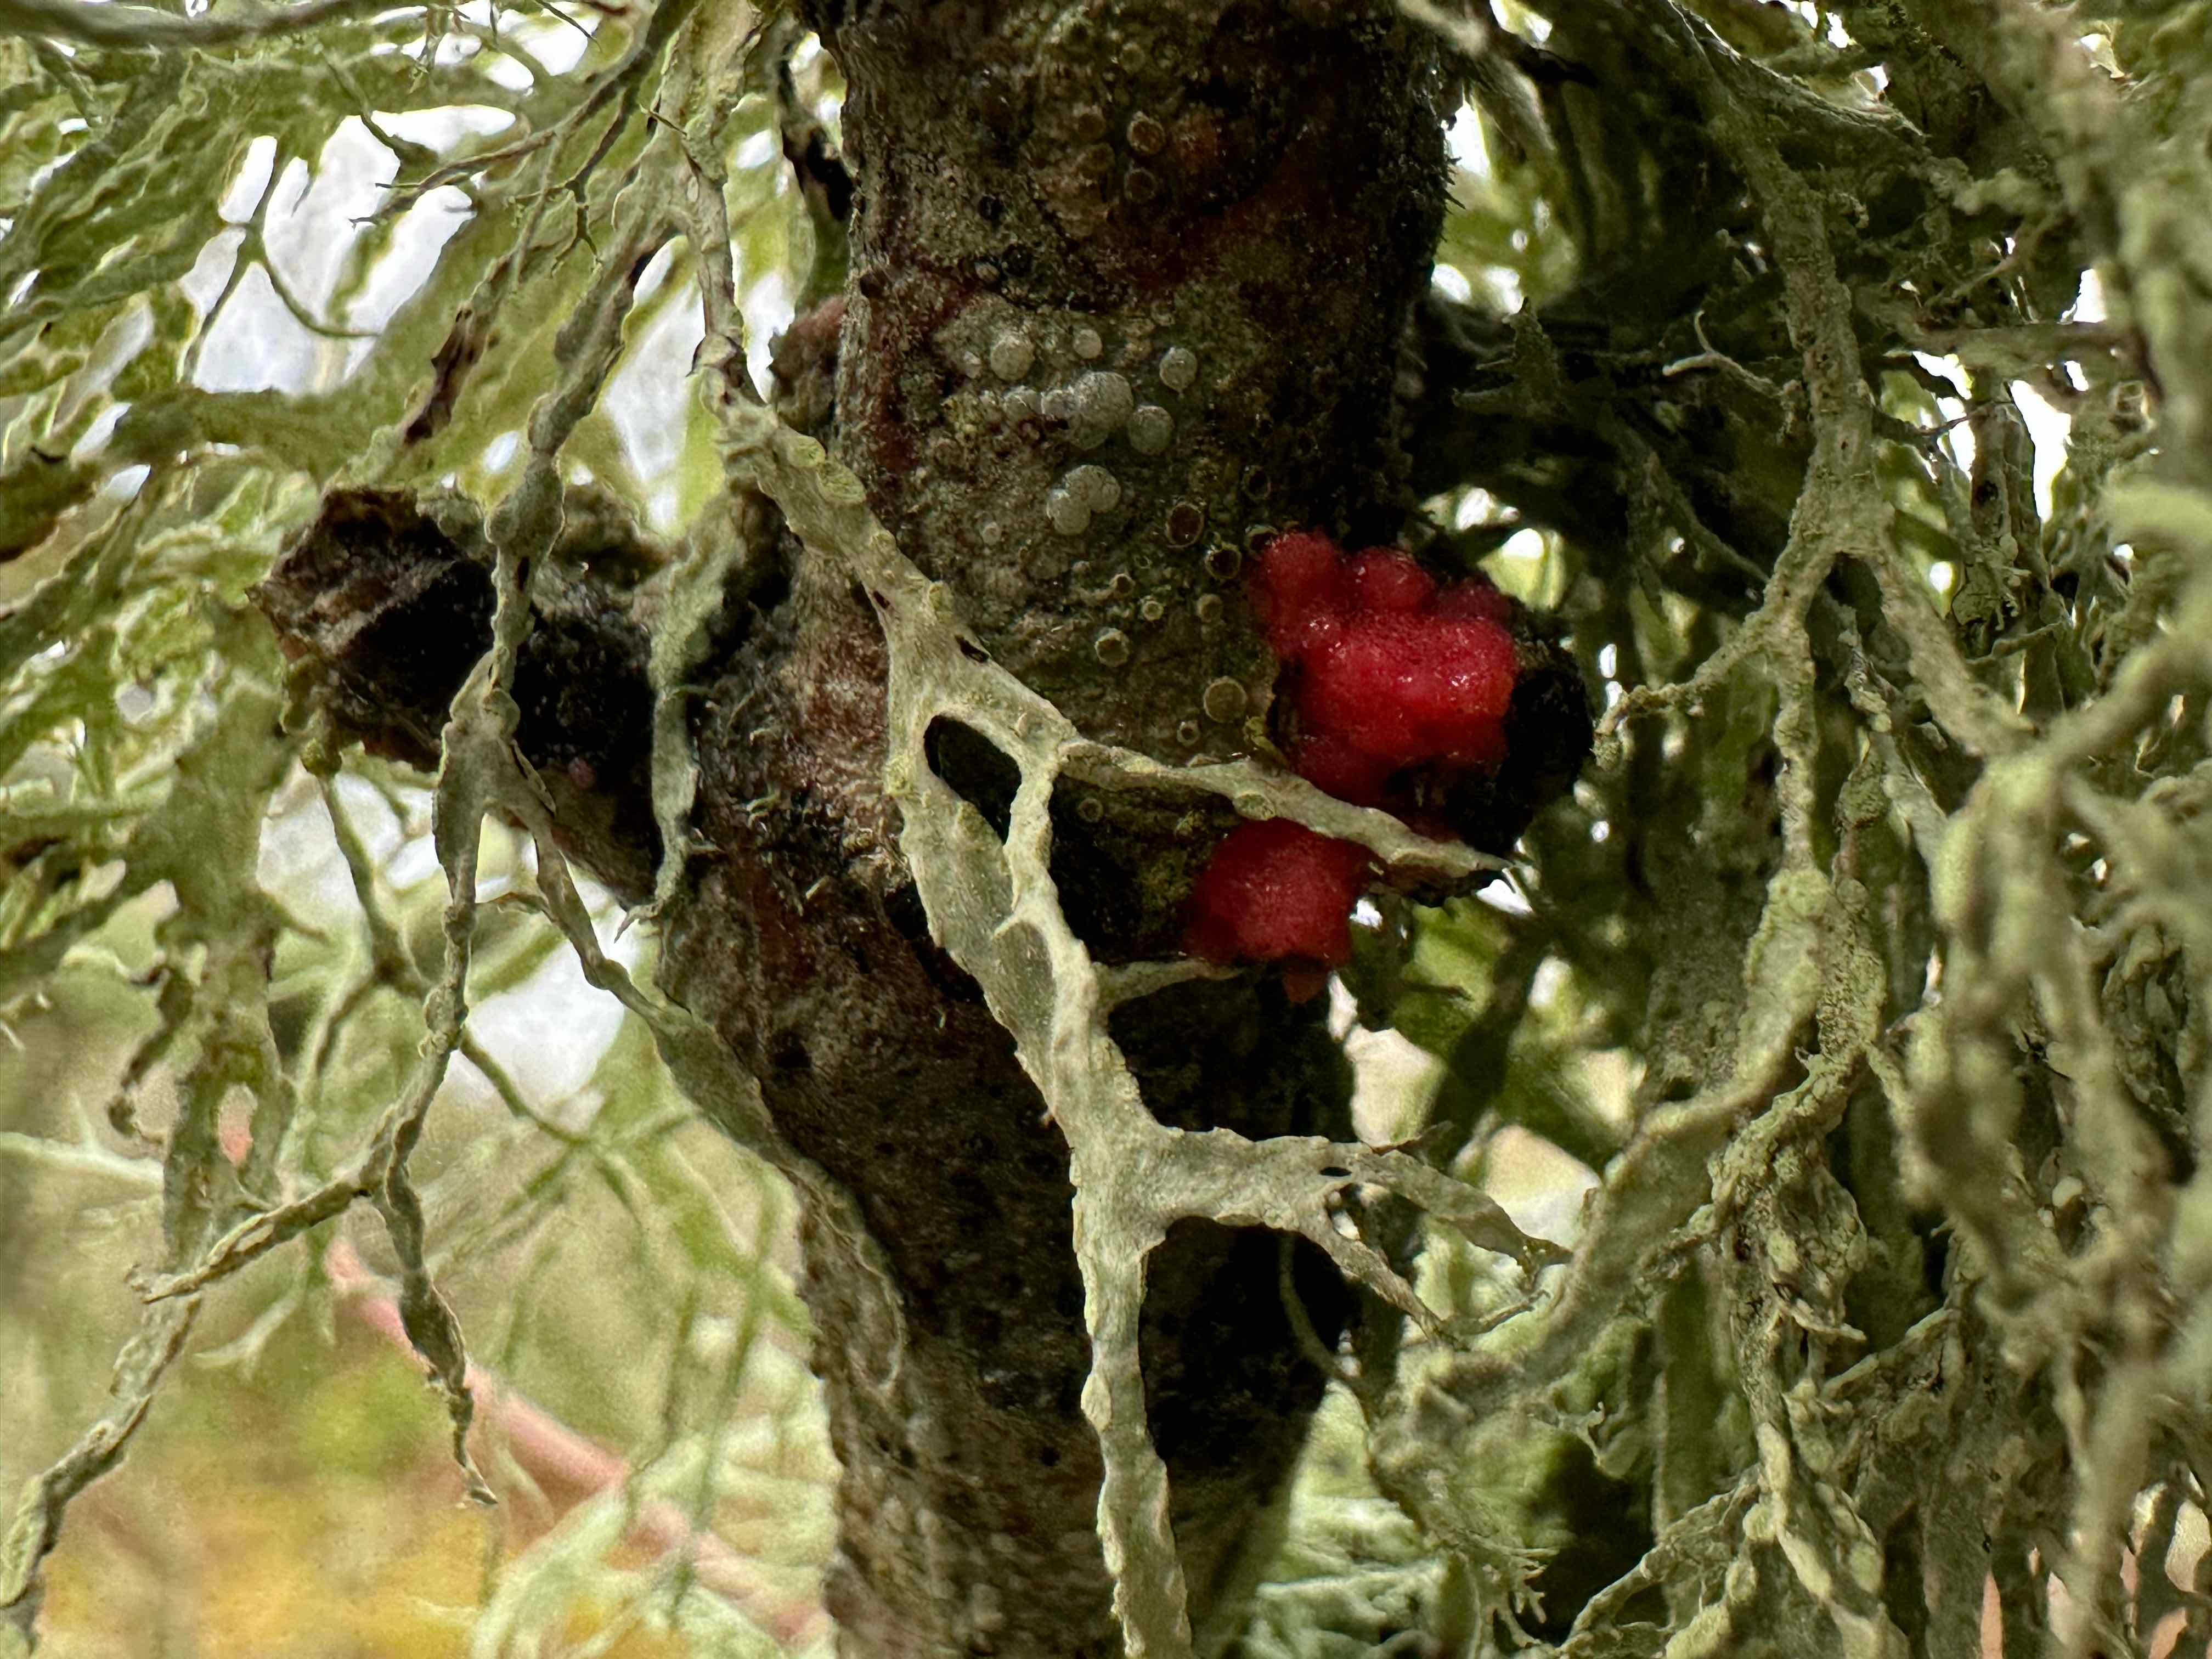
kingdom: Fungi
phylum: Ascomycota
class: Sordariomycetes
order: Hypocreales
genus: Illosporiopsis
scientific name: Illosporiopsis christiansenii
